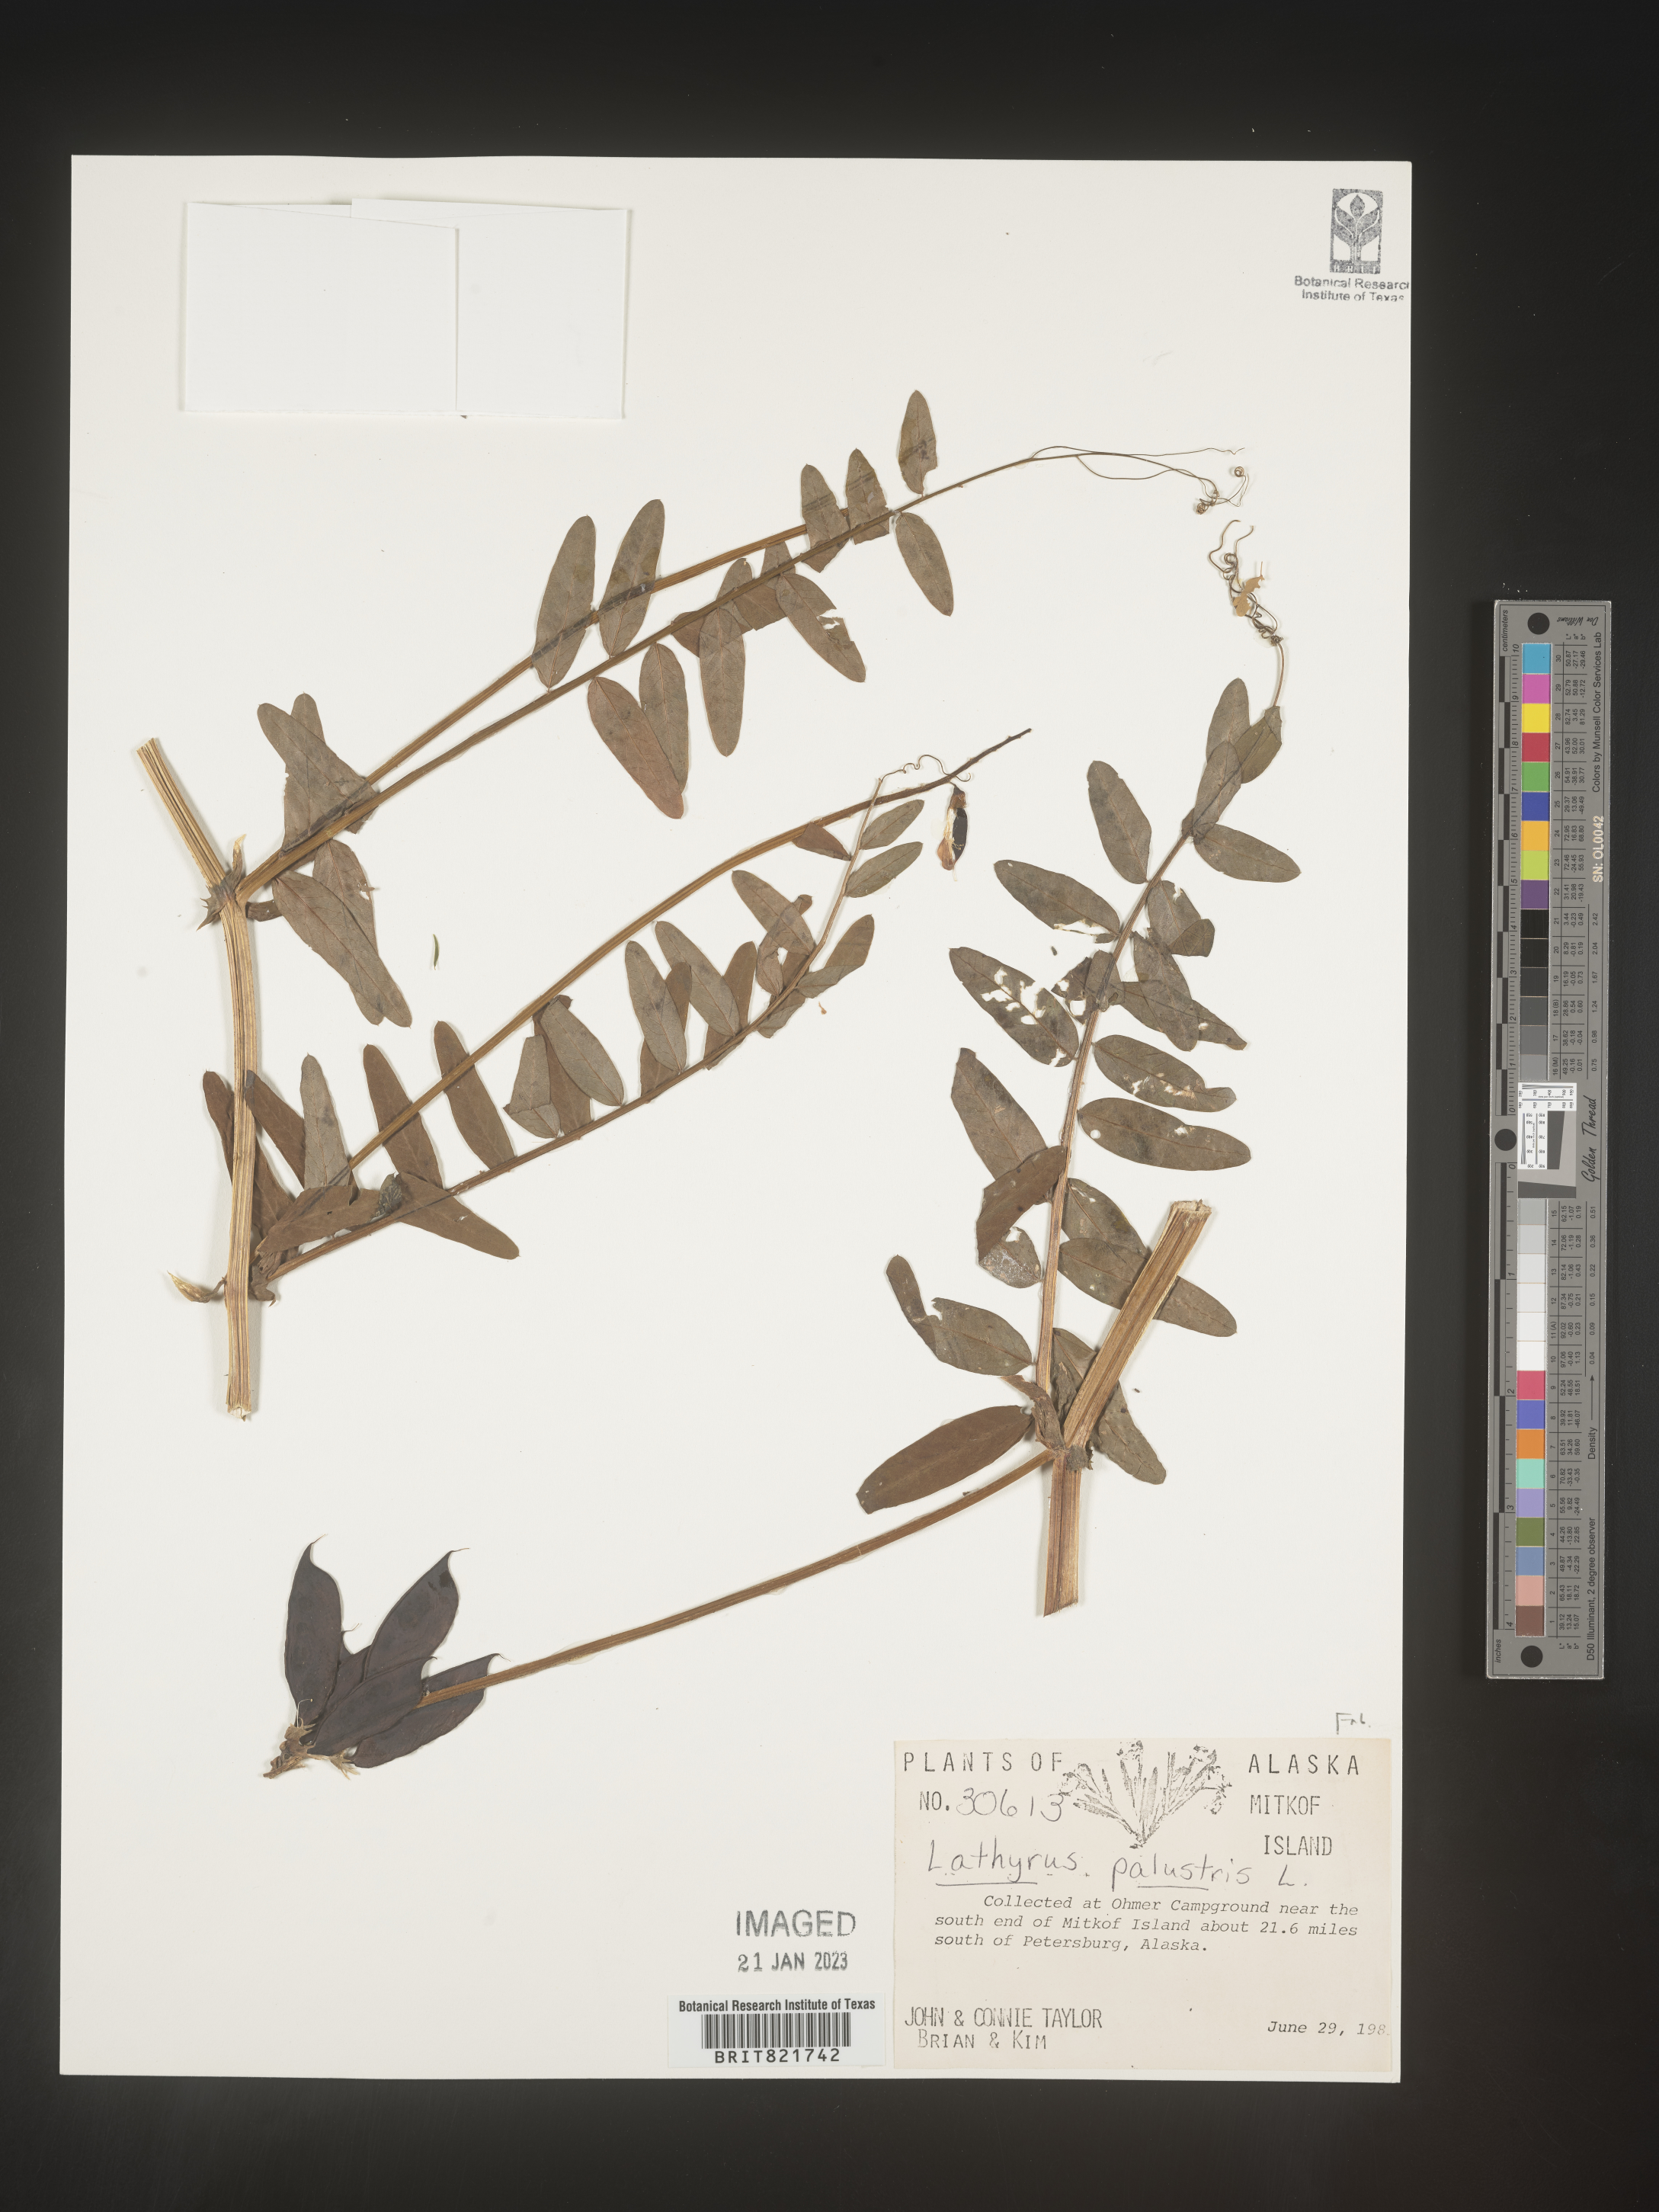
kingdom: Plantae
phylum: Tracheophyta
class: Magnoliopsida
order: Fabales
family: Fabaceae
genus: Lathyrus
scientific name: Lathyrus palustris
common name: Marsh pea
